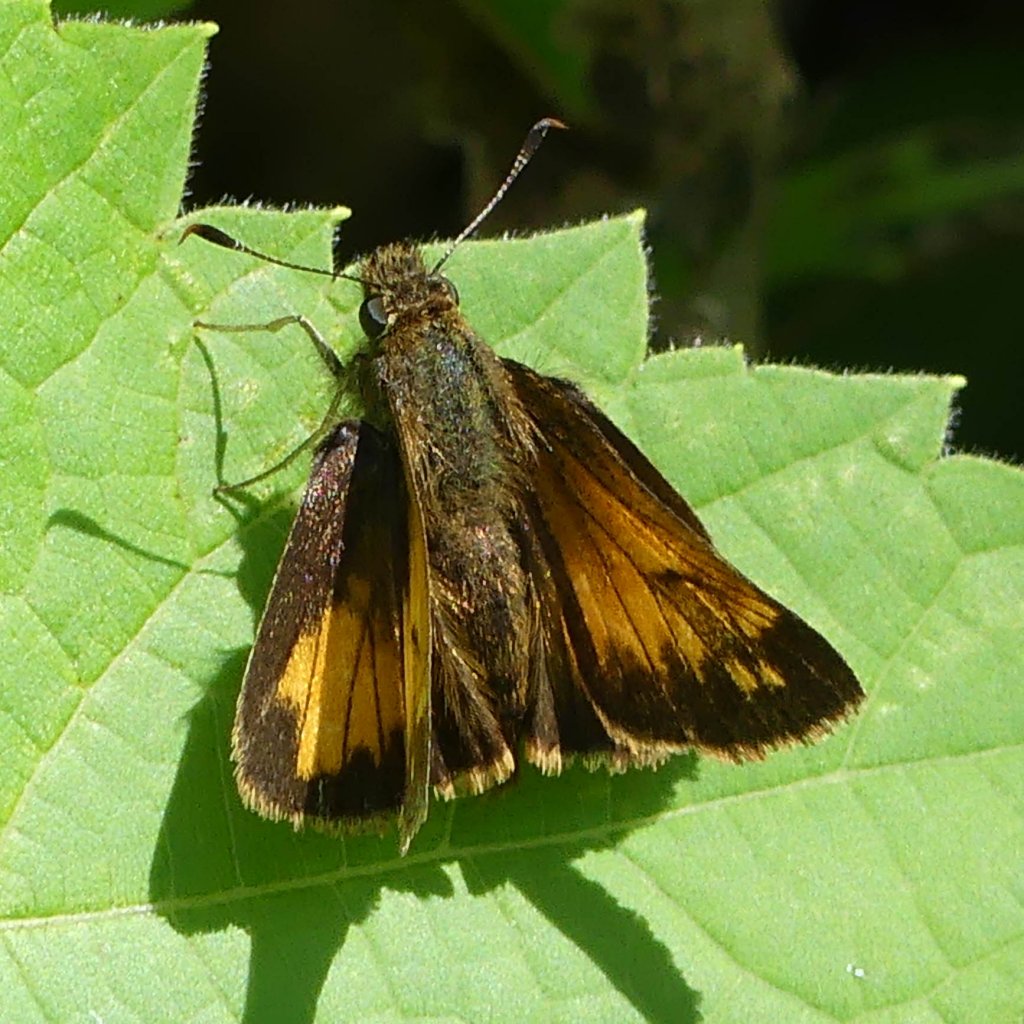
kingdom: Animalia
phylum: Arthropoda
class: Insecta
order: Lepidoptera
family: Hesperiidae
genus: Lon
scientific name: Lon hobomok
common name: Hobomok Skipper
